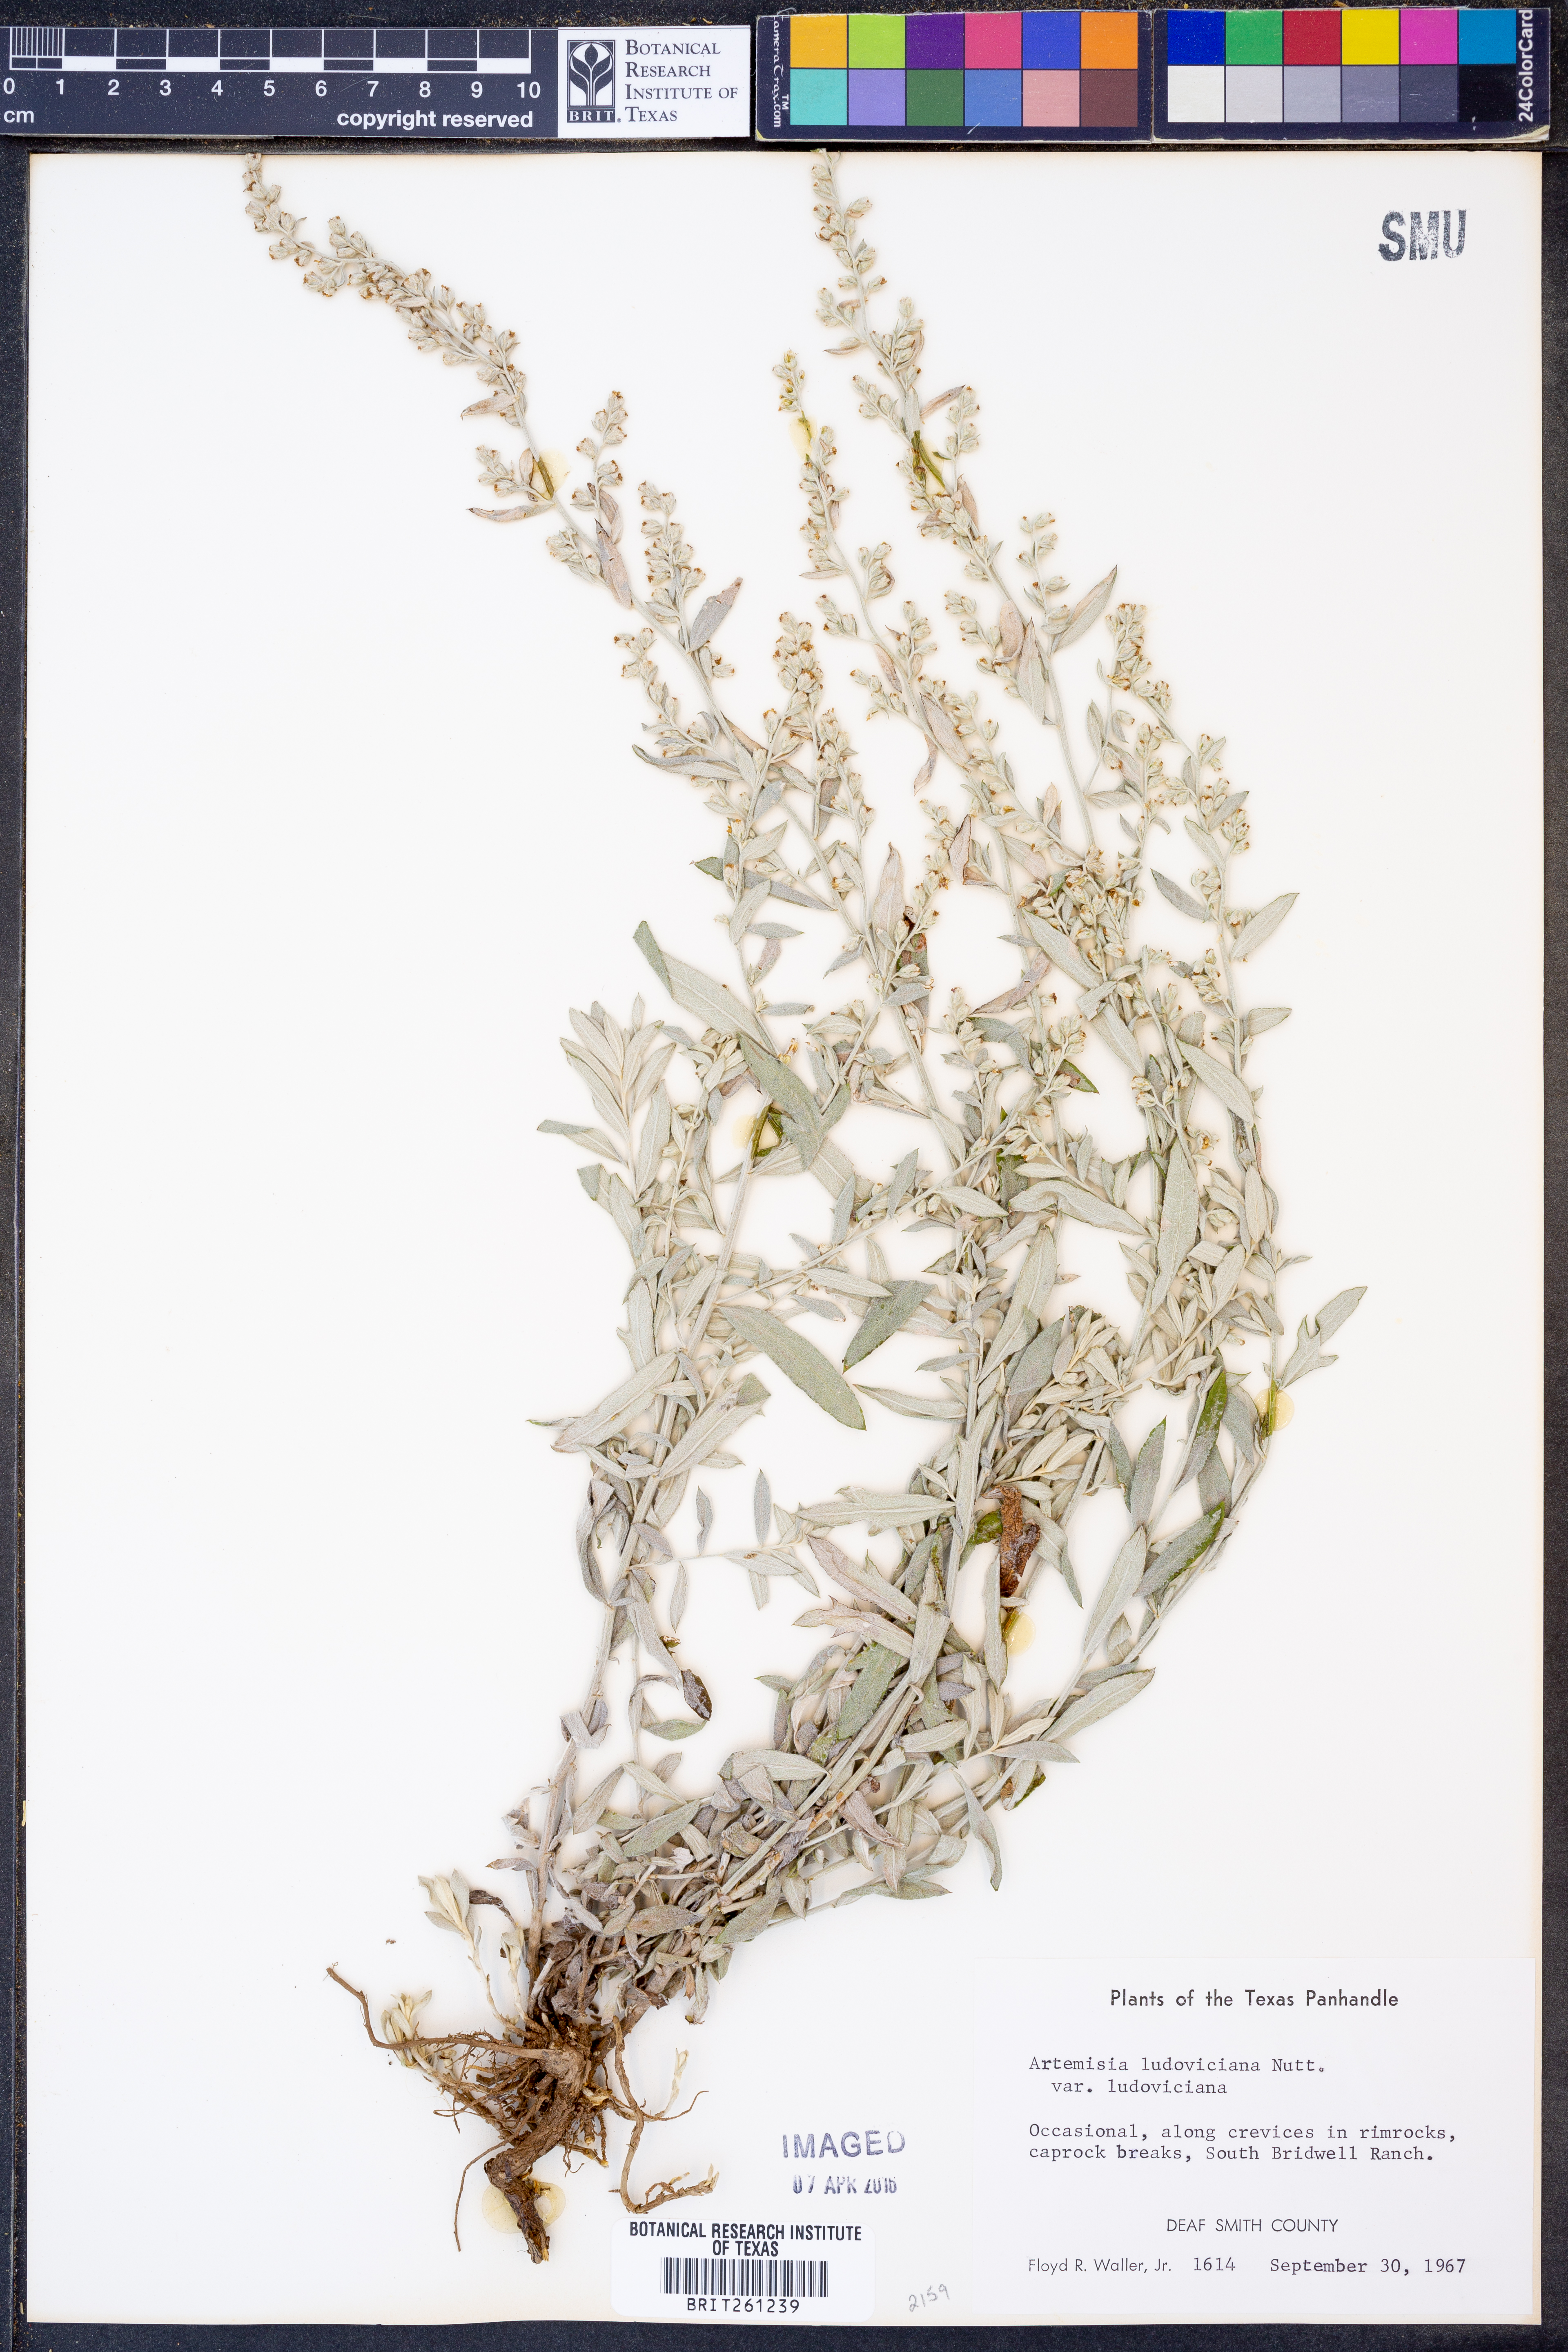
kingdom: Plantae
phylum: Tracheophyta
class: Magnoliopsida
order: Asterales
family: Asteraceae
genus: Artemisia
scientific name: Artemisia ludoviciana
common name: Western mugwort
